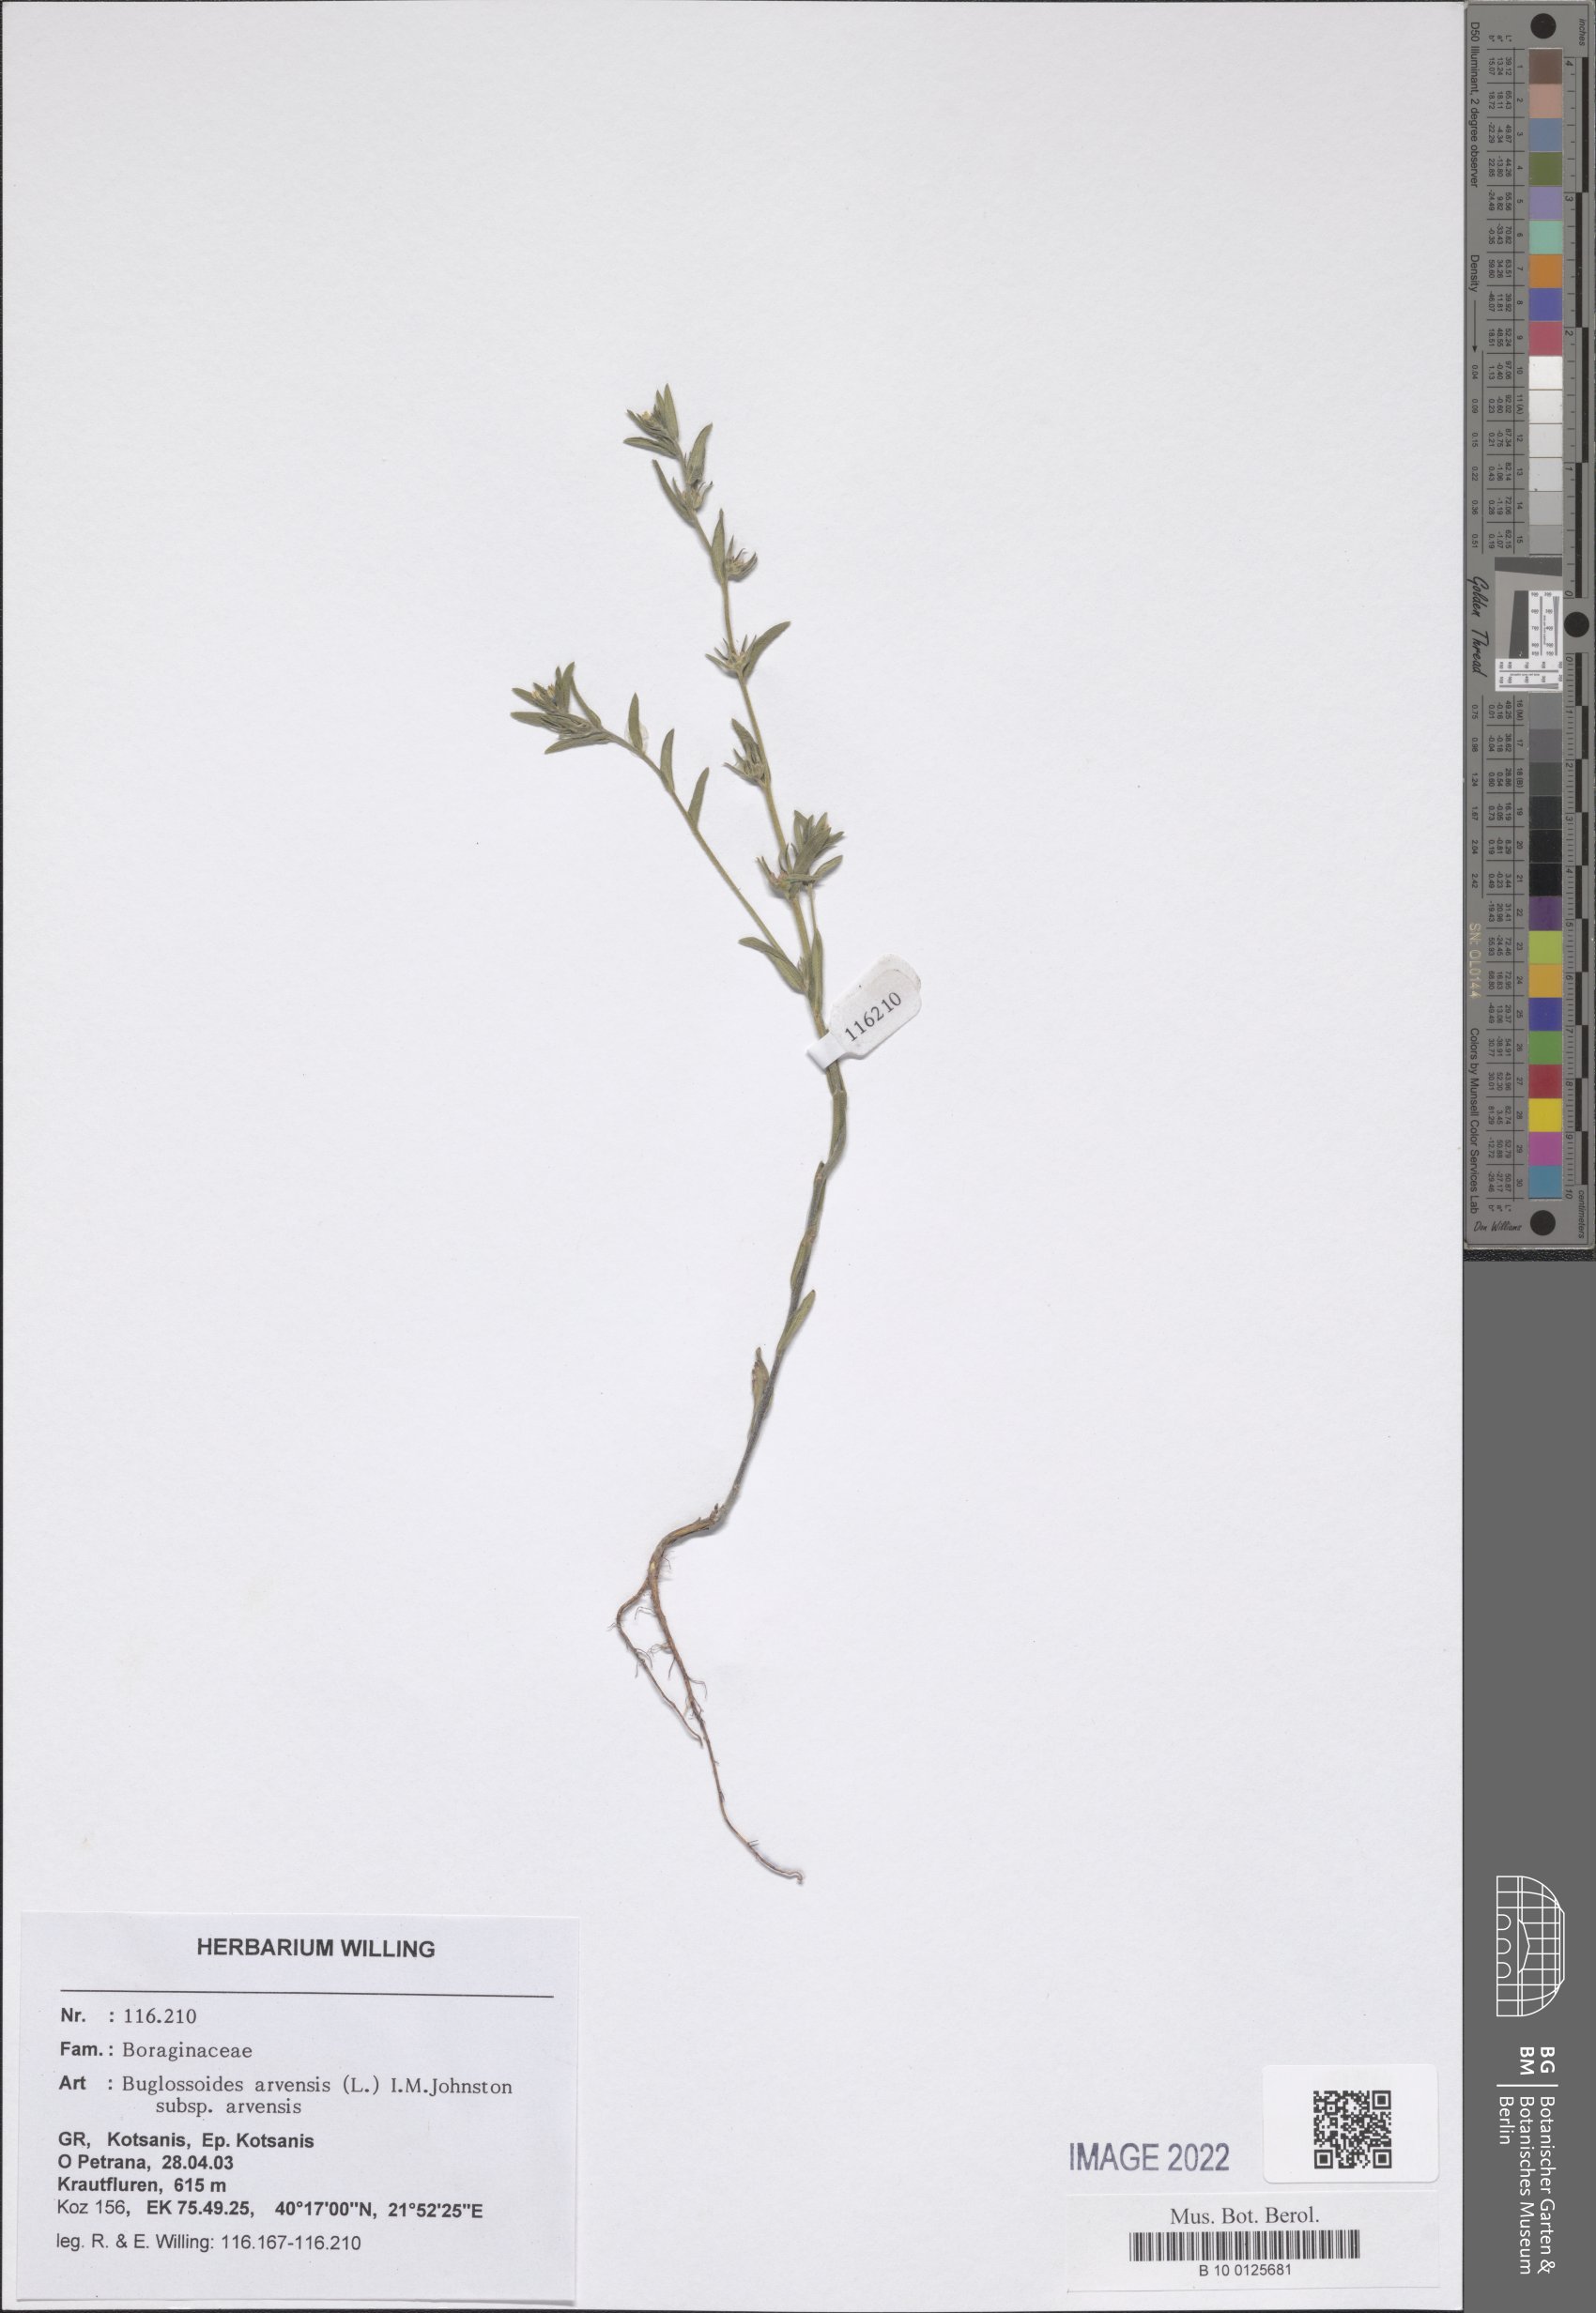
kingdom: Plantae
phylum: Tracheophyta
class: Magnoliopsida
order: Boraginales
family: Boraginaceae
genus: Buglossoides
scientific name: Buglossoides arvensis
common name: Corn gromwell
